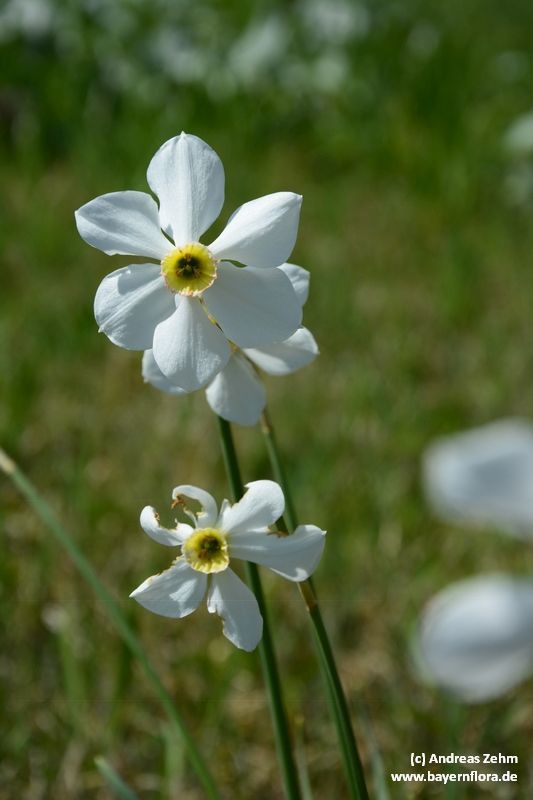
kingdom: Plantae
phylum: Tracheophyta
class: Liliopsida
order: Asparagales
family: Amaryllidaceae
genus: Narcissus
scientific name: Narcissus
